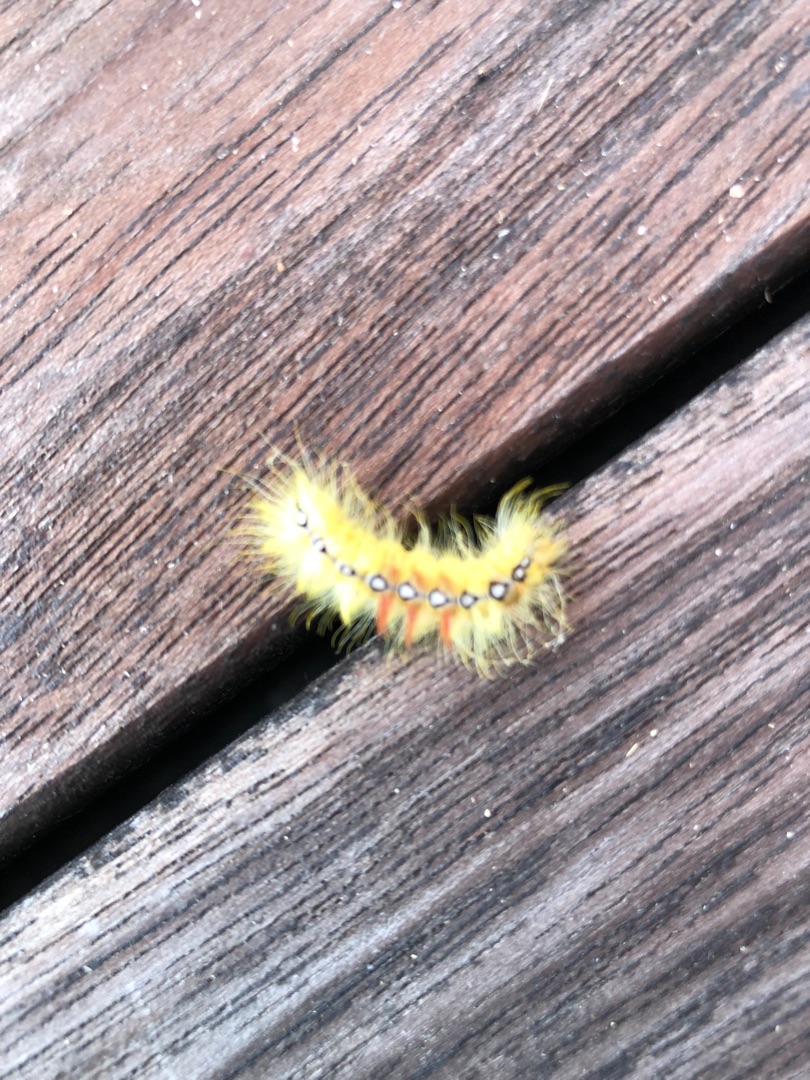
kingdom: Animalia
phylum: Arthropoda
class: Insecta
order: Lepidoptera
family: Noctuidae
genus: Acronicta
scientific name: Acronicta aceris
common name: Ahornugle
